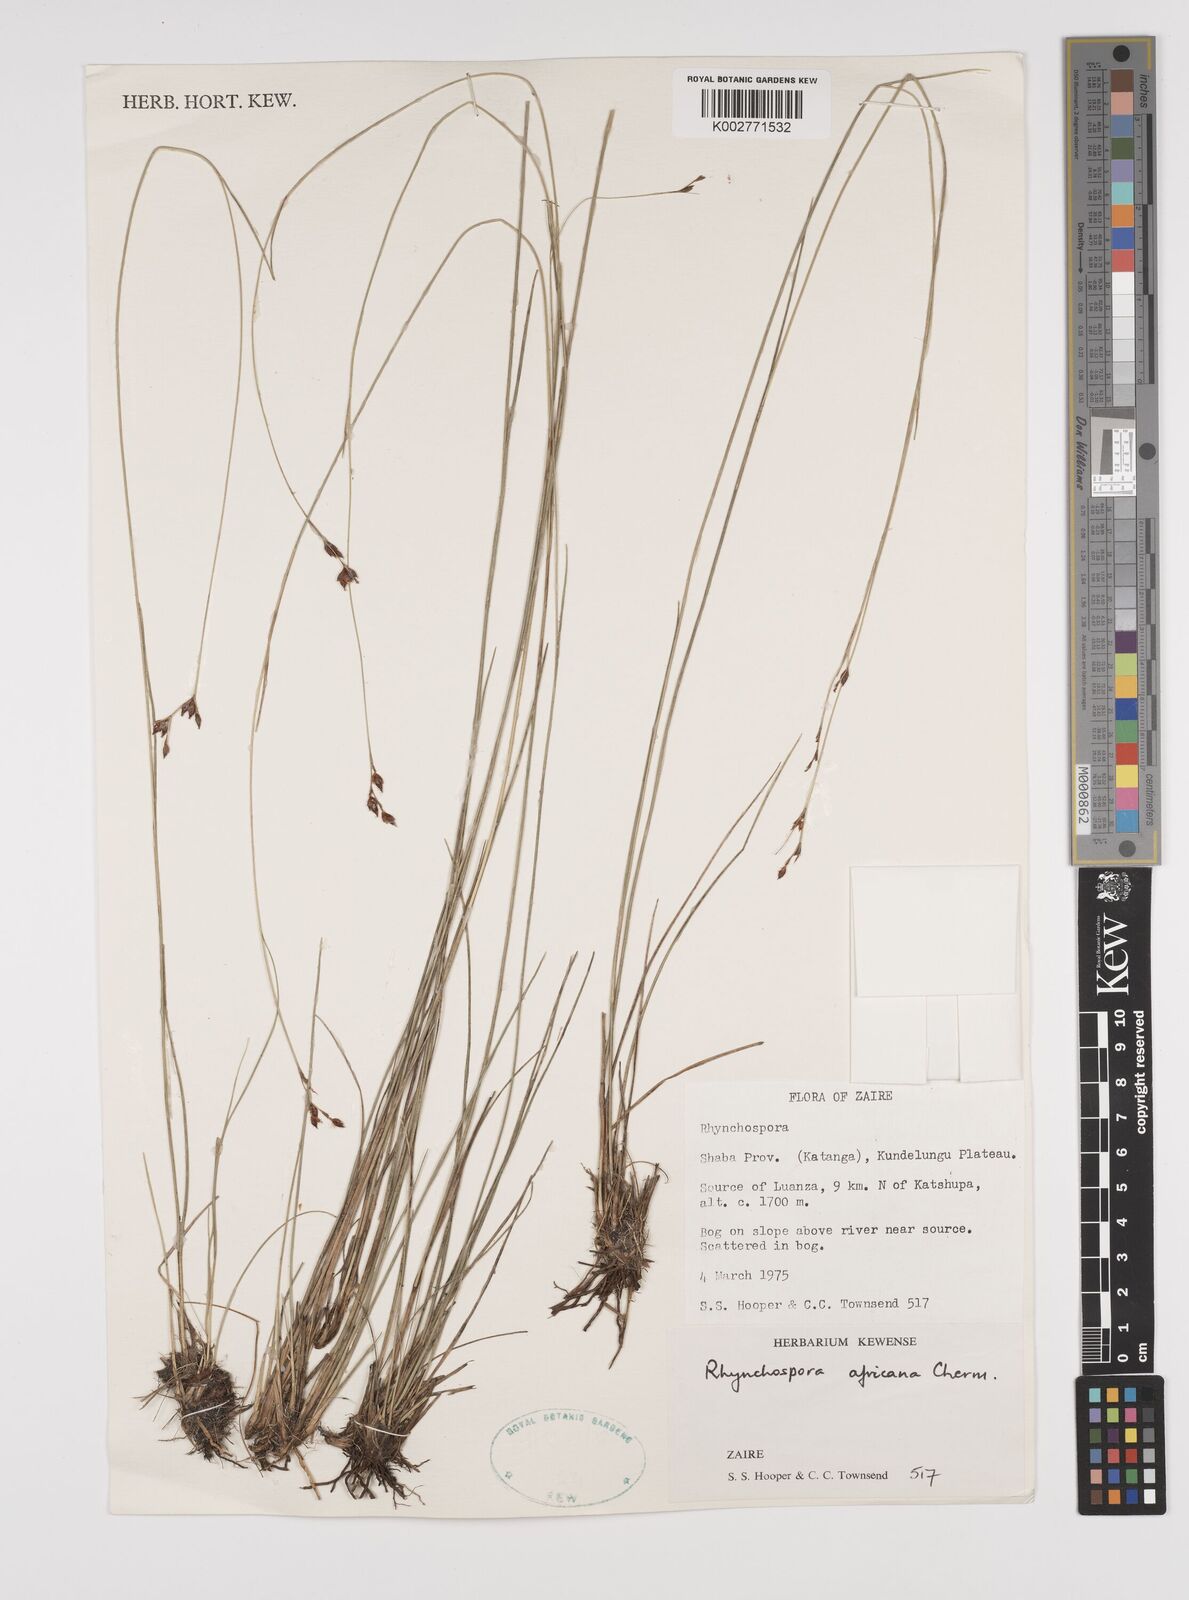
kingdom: Plantae
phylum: Tracheophyta
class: Liliopsida
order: Poales
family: Cyperaceae
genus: Rhynchospora
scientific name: Rhynchospora angolensis
